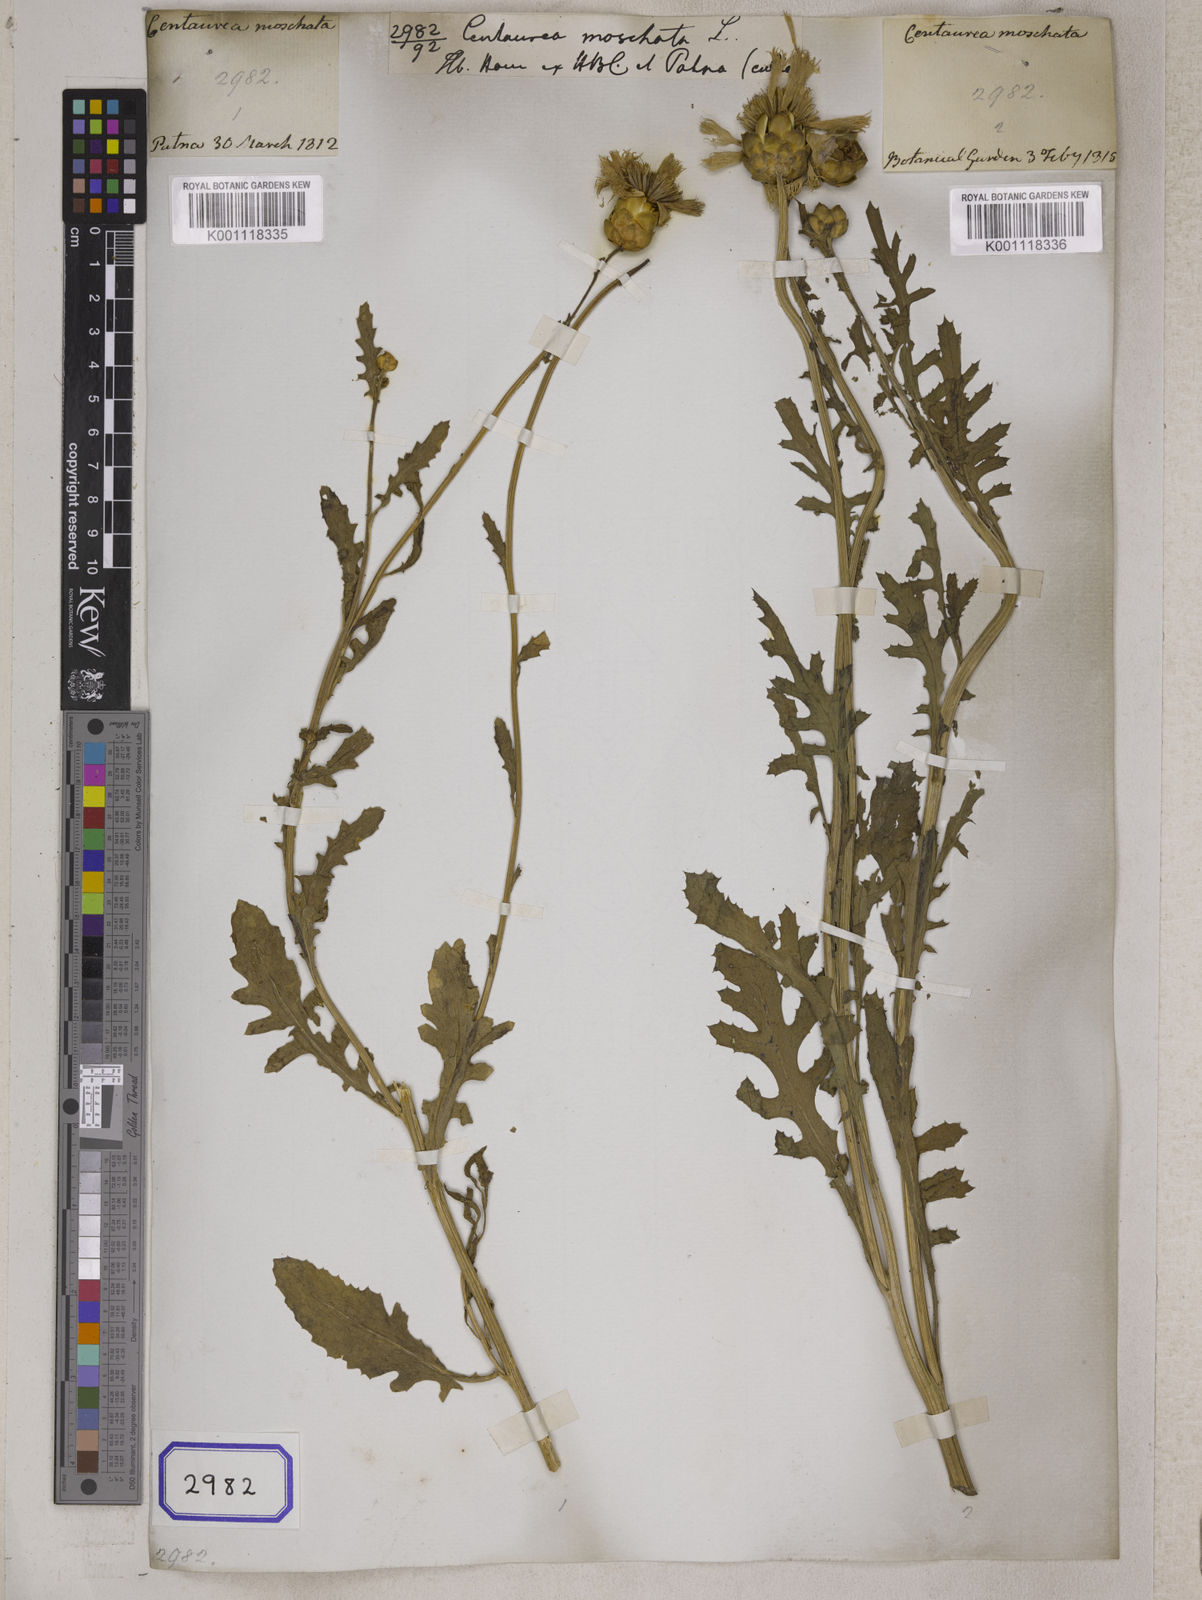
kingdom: Plantae
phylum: Tracheophyta
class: Magnoliopsida
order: Asterales
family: Asteraceae
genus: Amberboa
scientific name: Amberboa moschata
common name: Sweet-sultan
